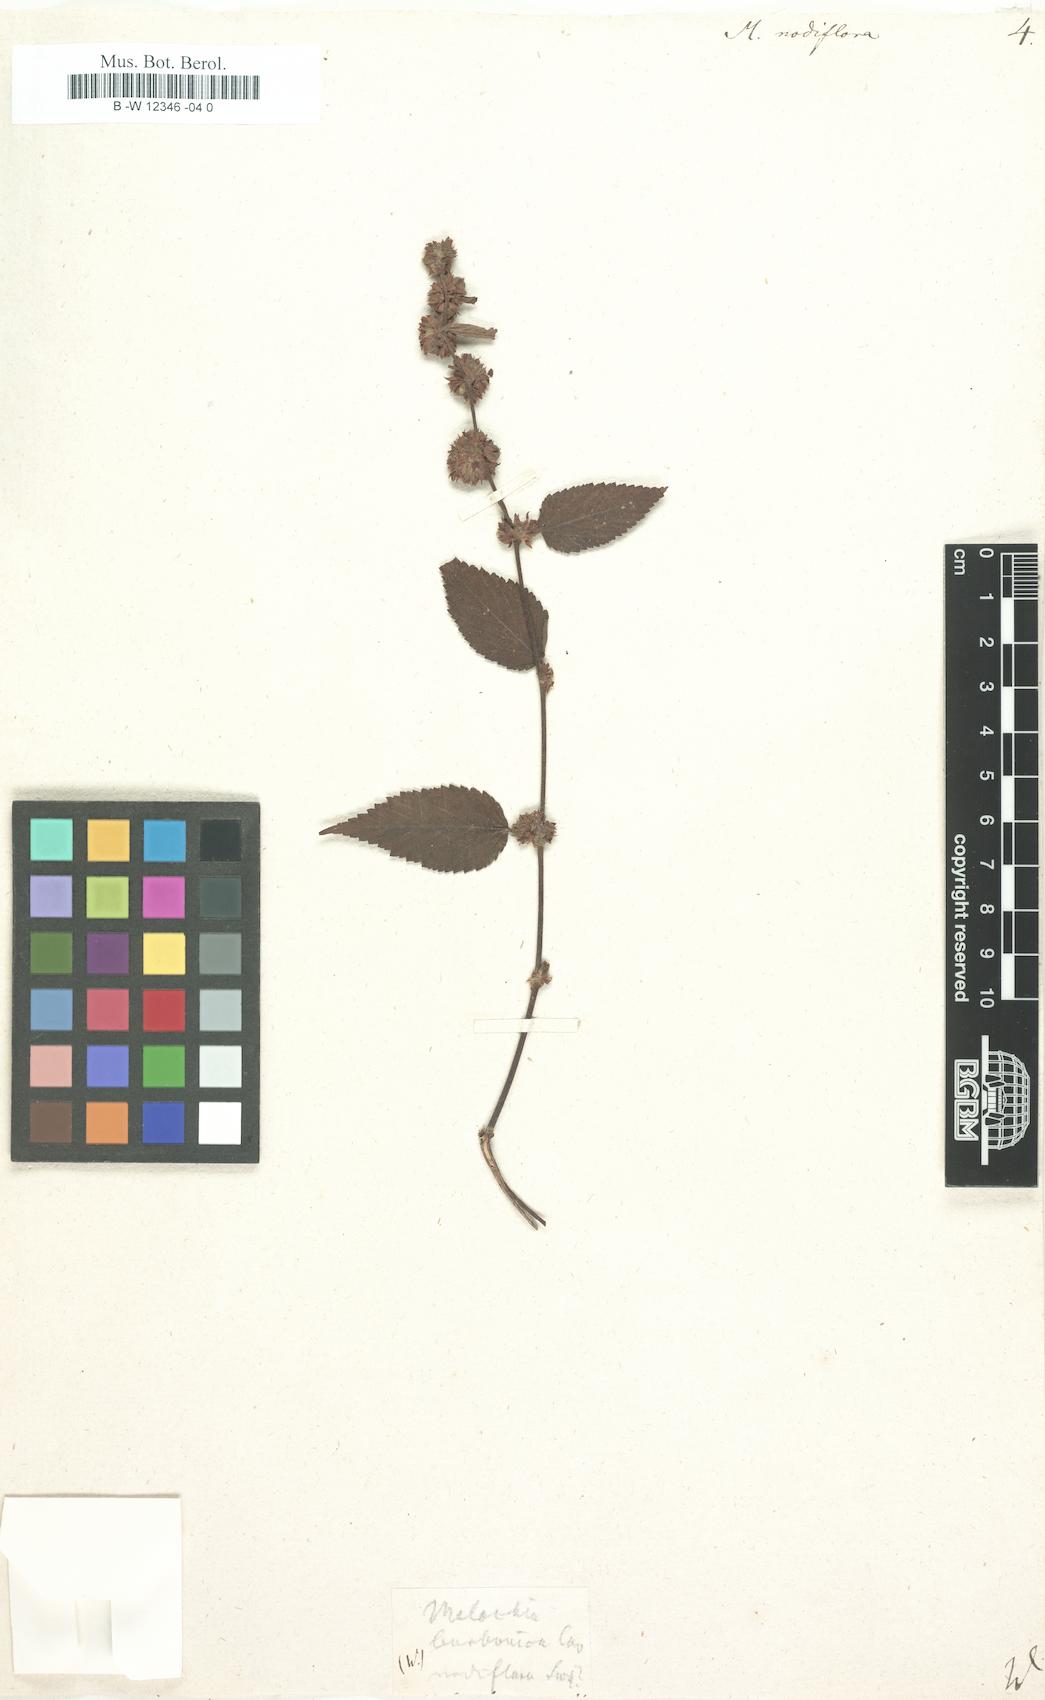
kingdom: Plantae
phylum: Tracheophyta
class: Magnoliopsida
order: Malvales
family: Malvaceae
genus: Melochia
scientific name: Melochia nodiflora
